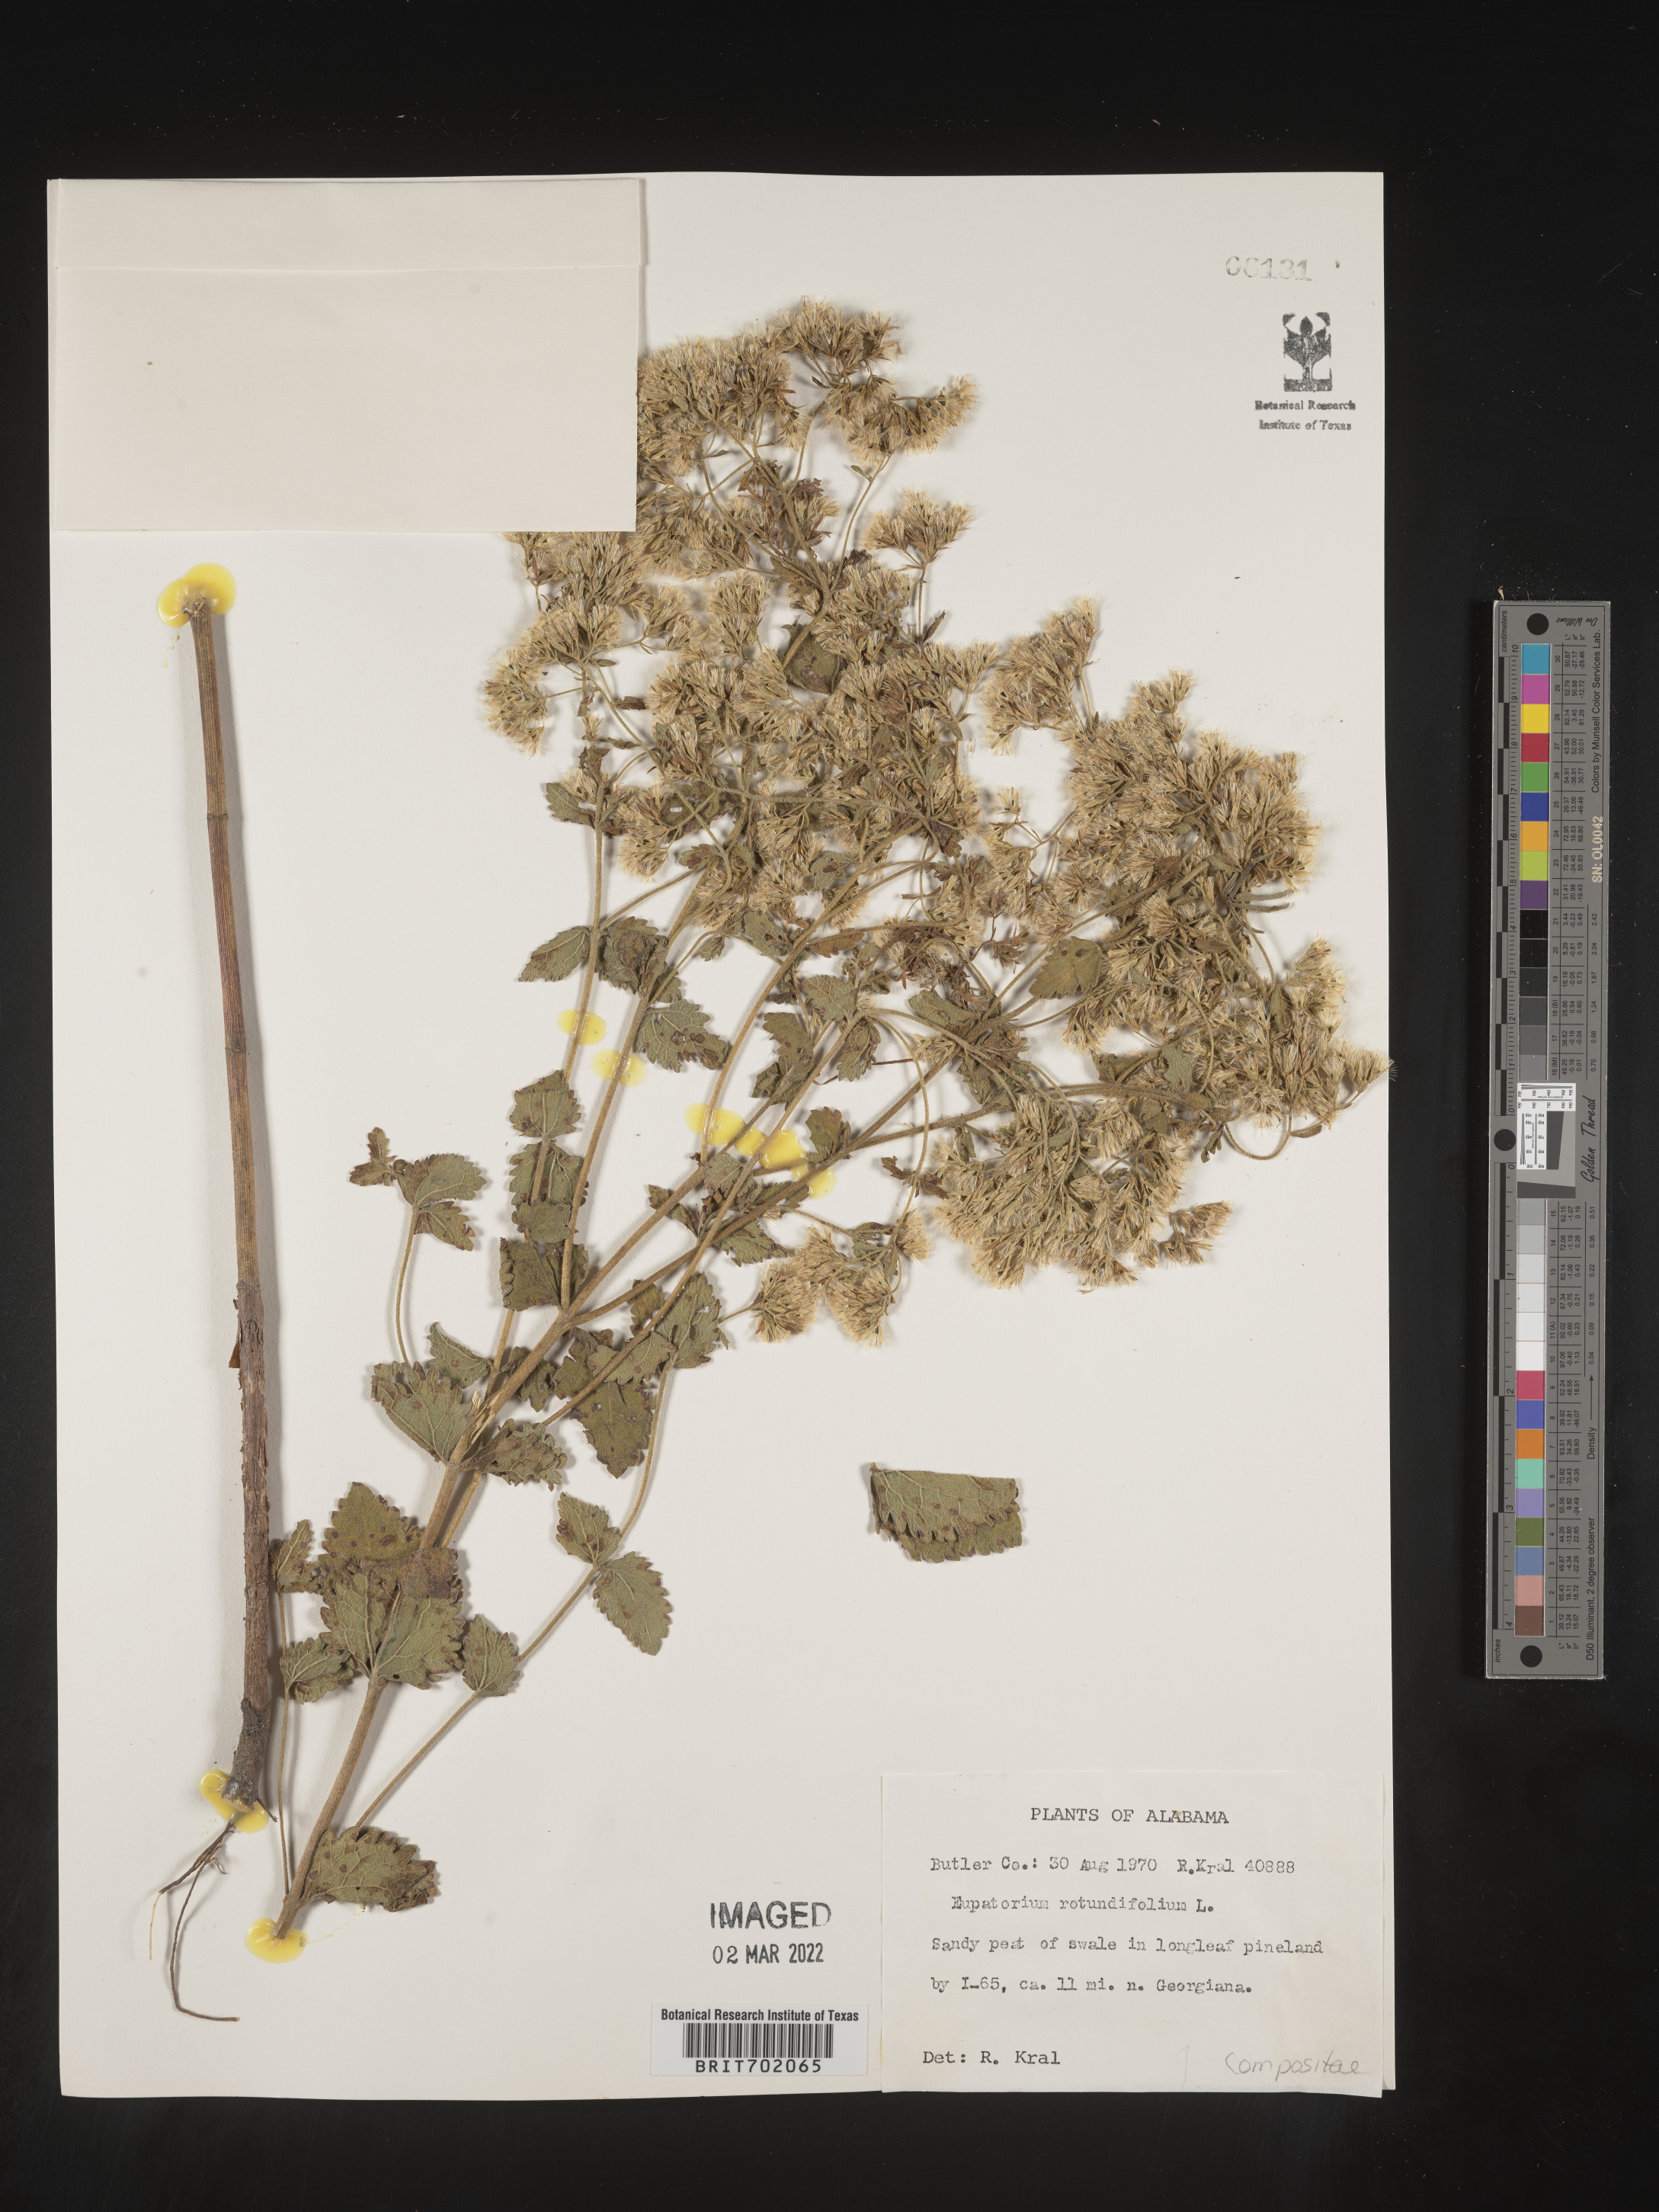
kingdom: Plantae
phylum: Tracheophyta
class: Magnoliopsida
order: Asterales
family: Asteraceae
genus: Eupatorium
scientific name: Eupatorium rotundifolium
